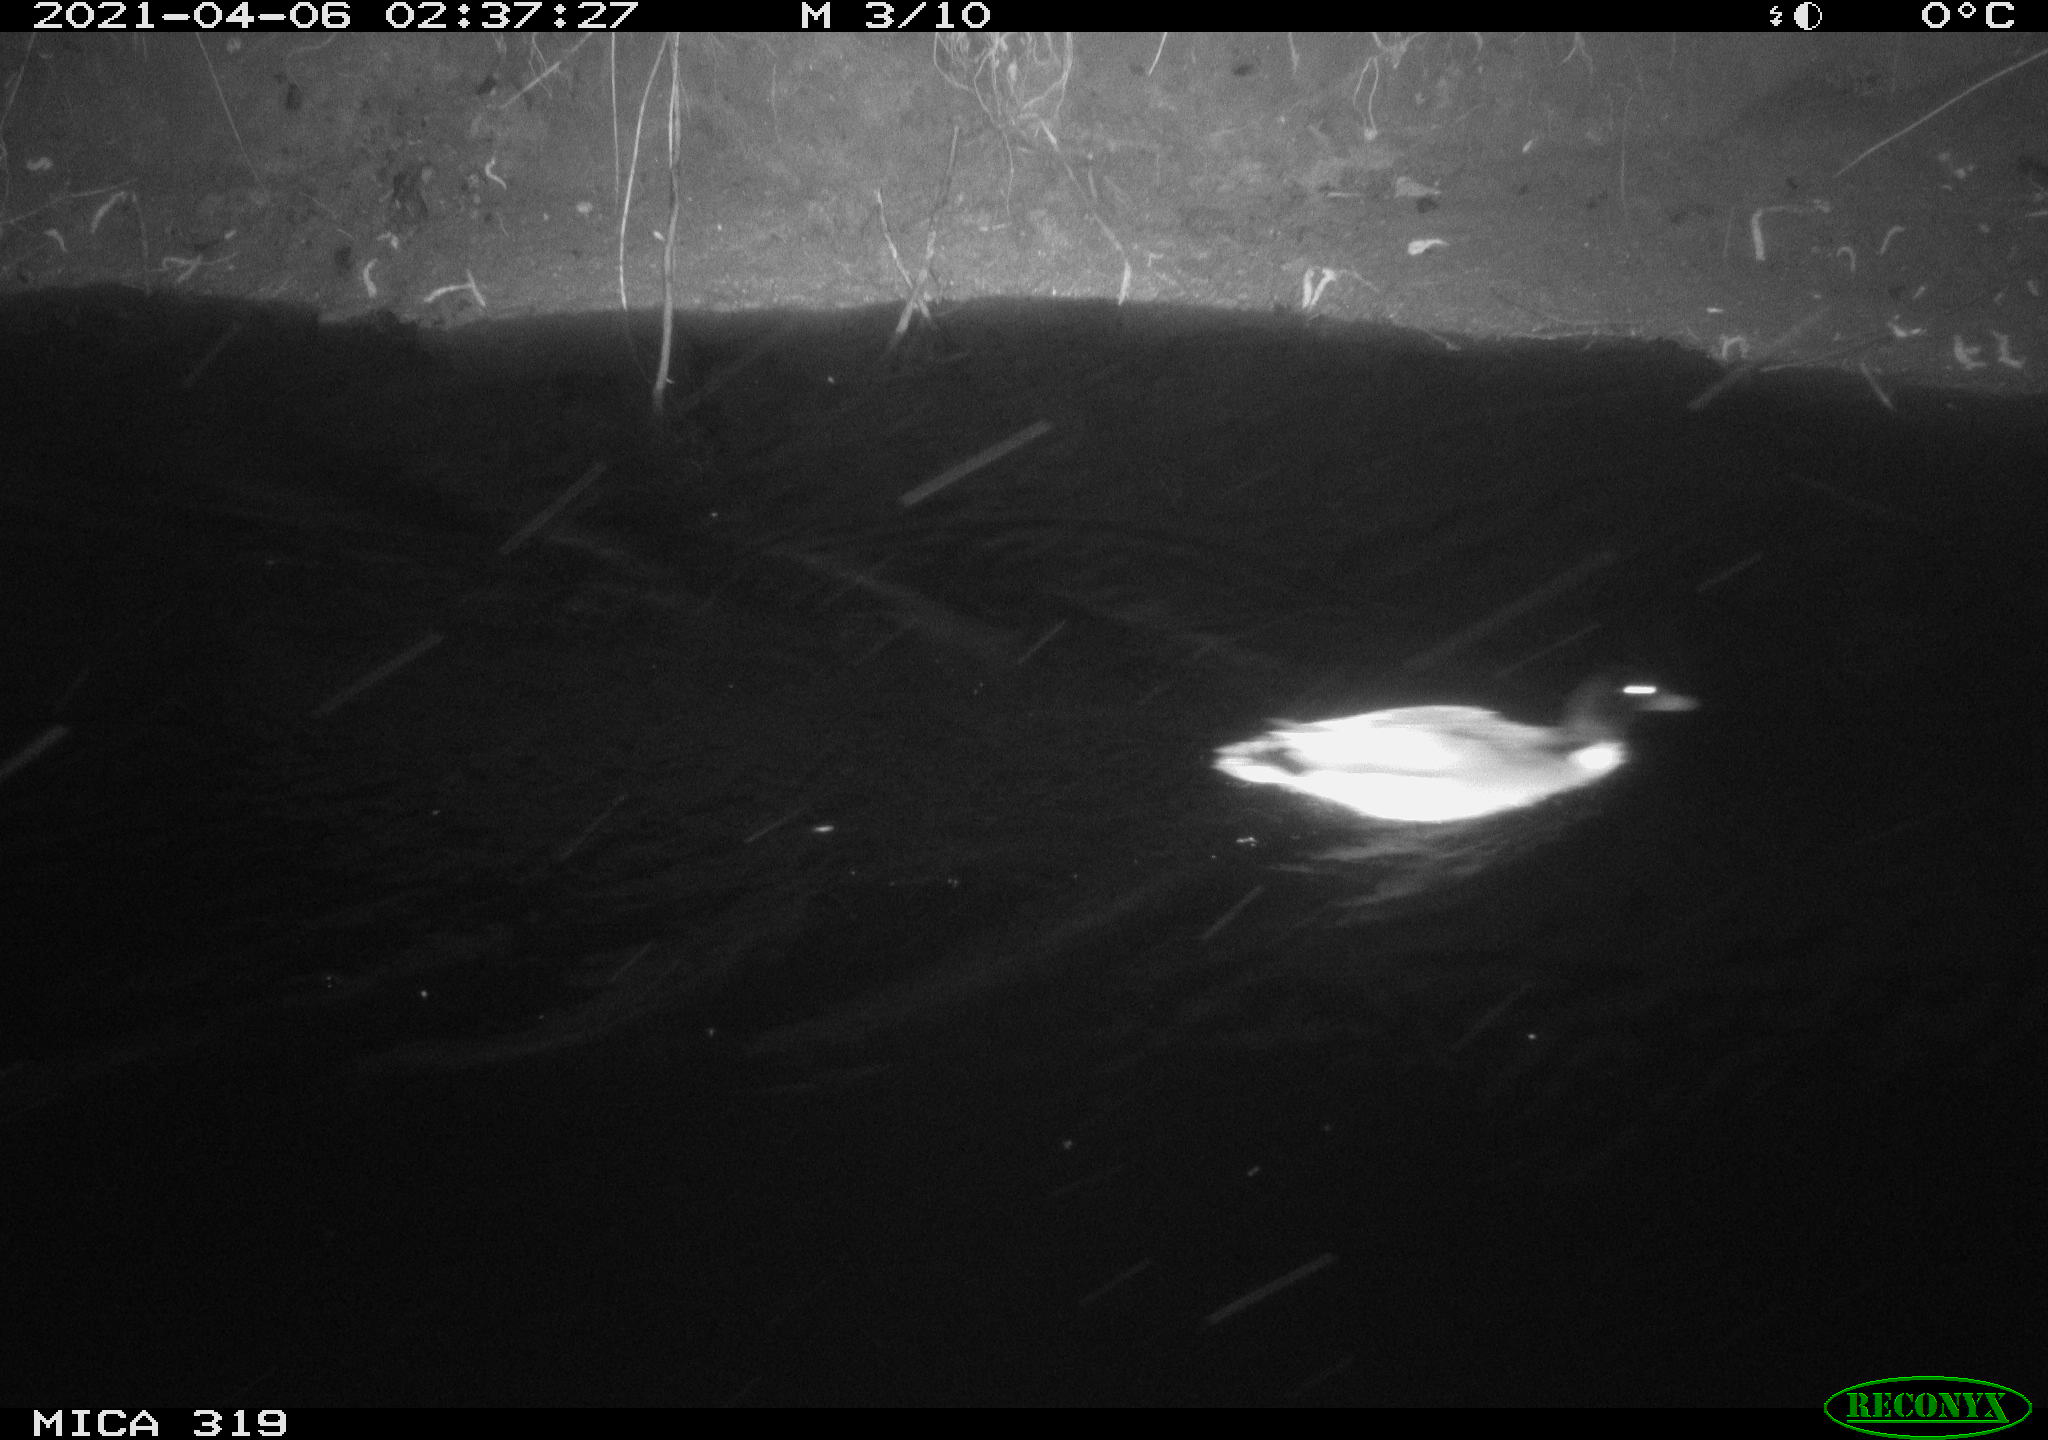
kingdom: Animalia
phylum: Chordata
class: Aves
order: Anseriformes
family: Anatidae
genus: Anas
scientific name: Anas platyrhynchos
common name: Mallard
